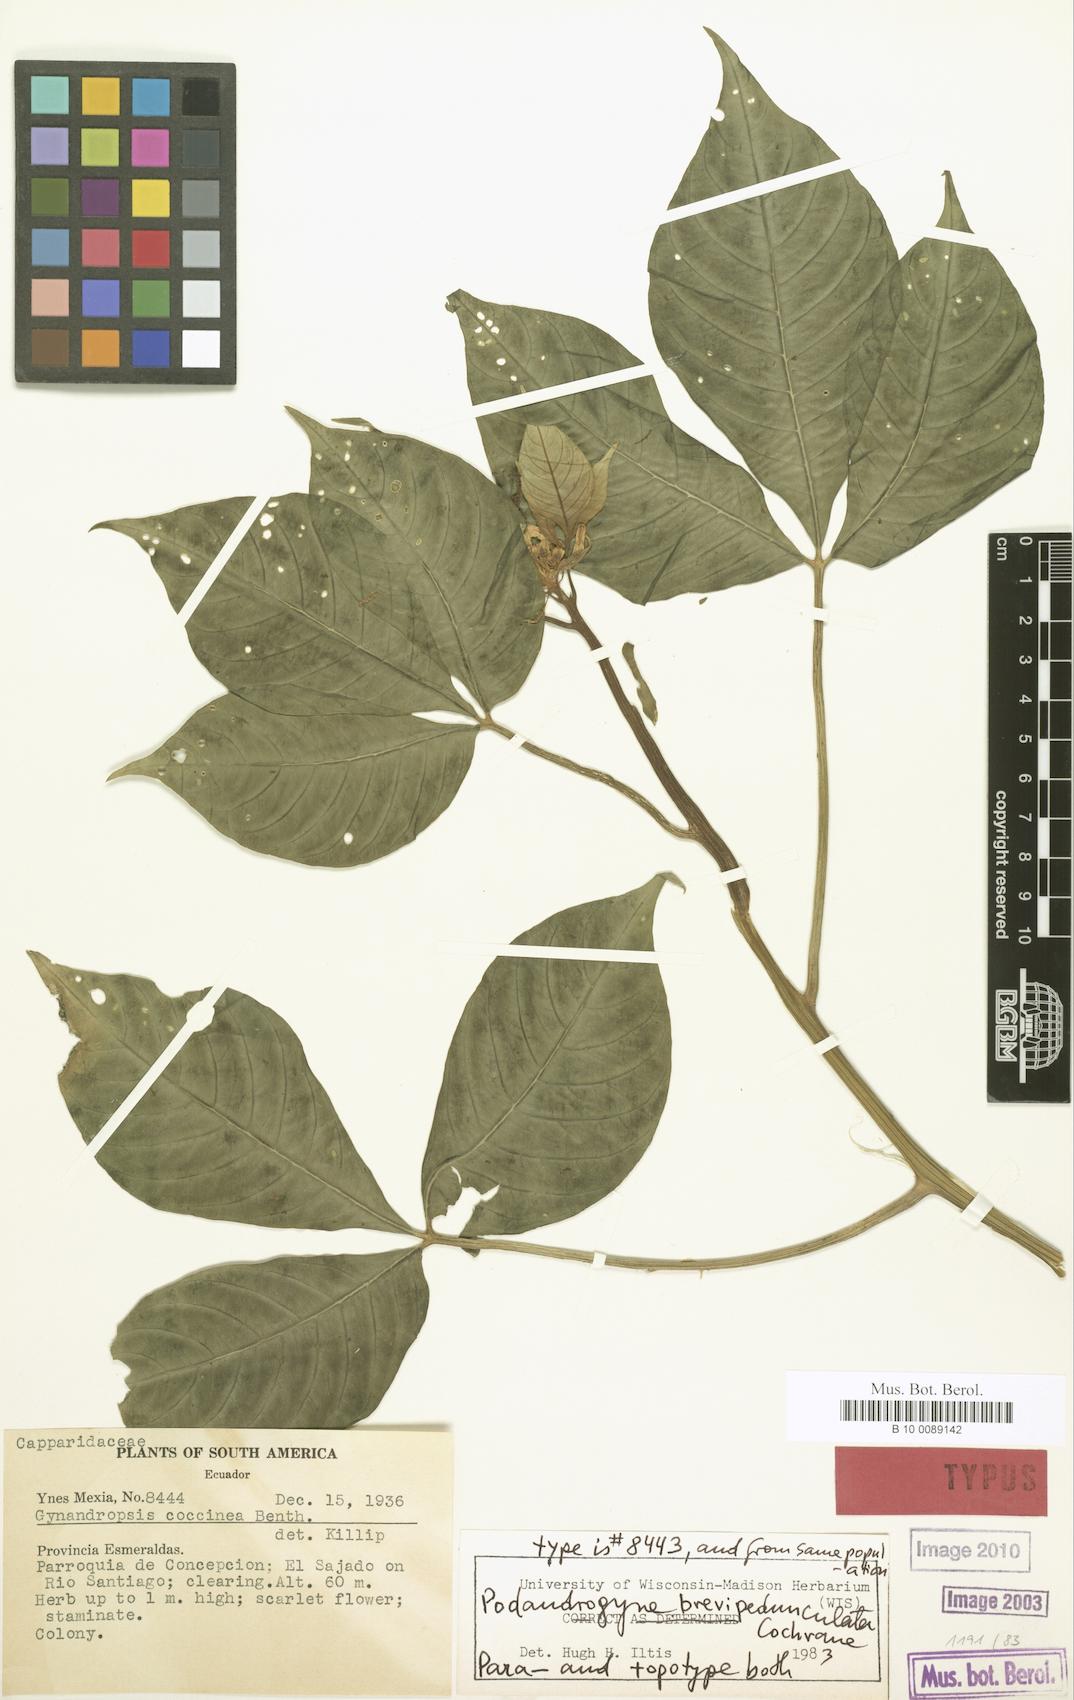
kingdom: Plantae
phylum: Tracheophyta
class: Magnoliopsida
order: Brassicales
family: Cleomaceae
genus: Podandrogyne
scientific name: Podandrogyne brevipedunculata
